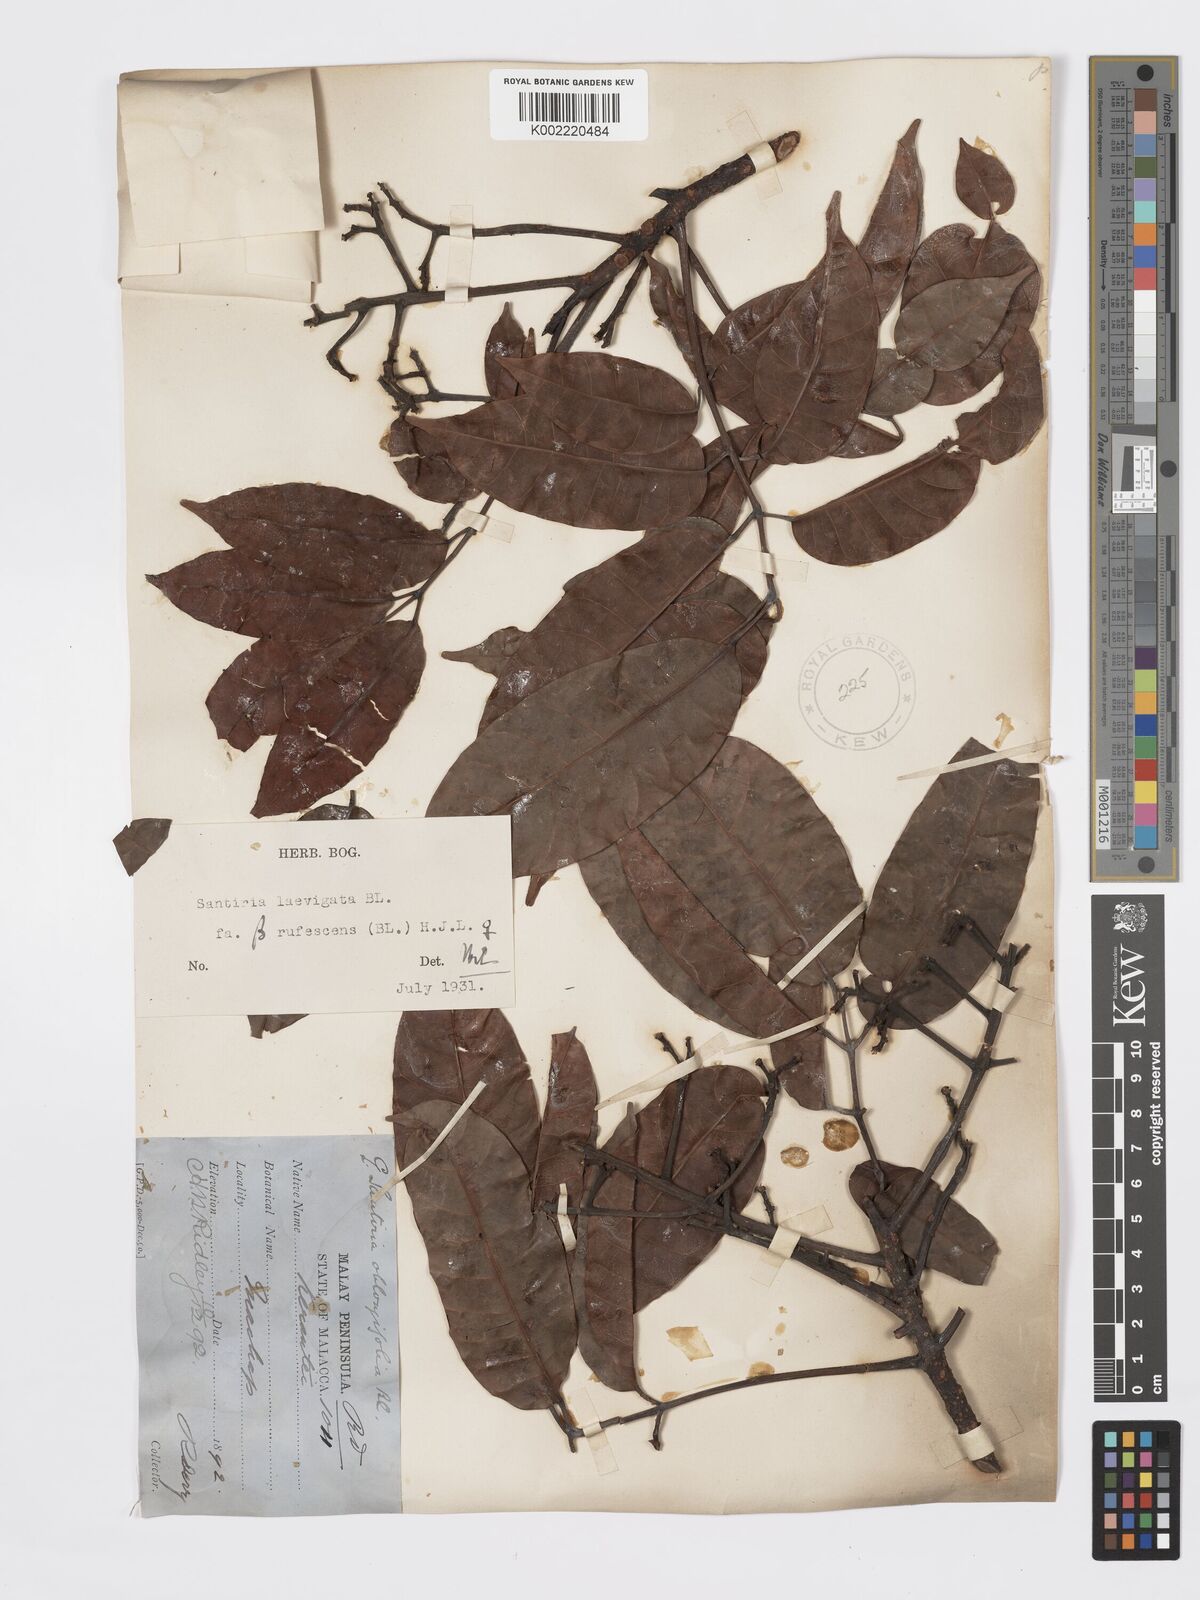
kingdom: Plantae
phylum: Tracheophyta
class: Magnoliopsida
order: Sapindales
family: Burseraceae
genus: Santiria
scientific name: Santiria laevigata
